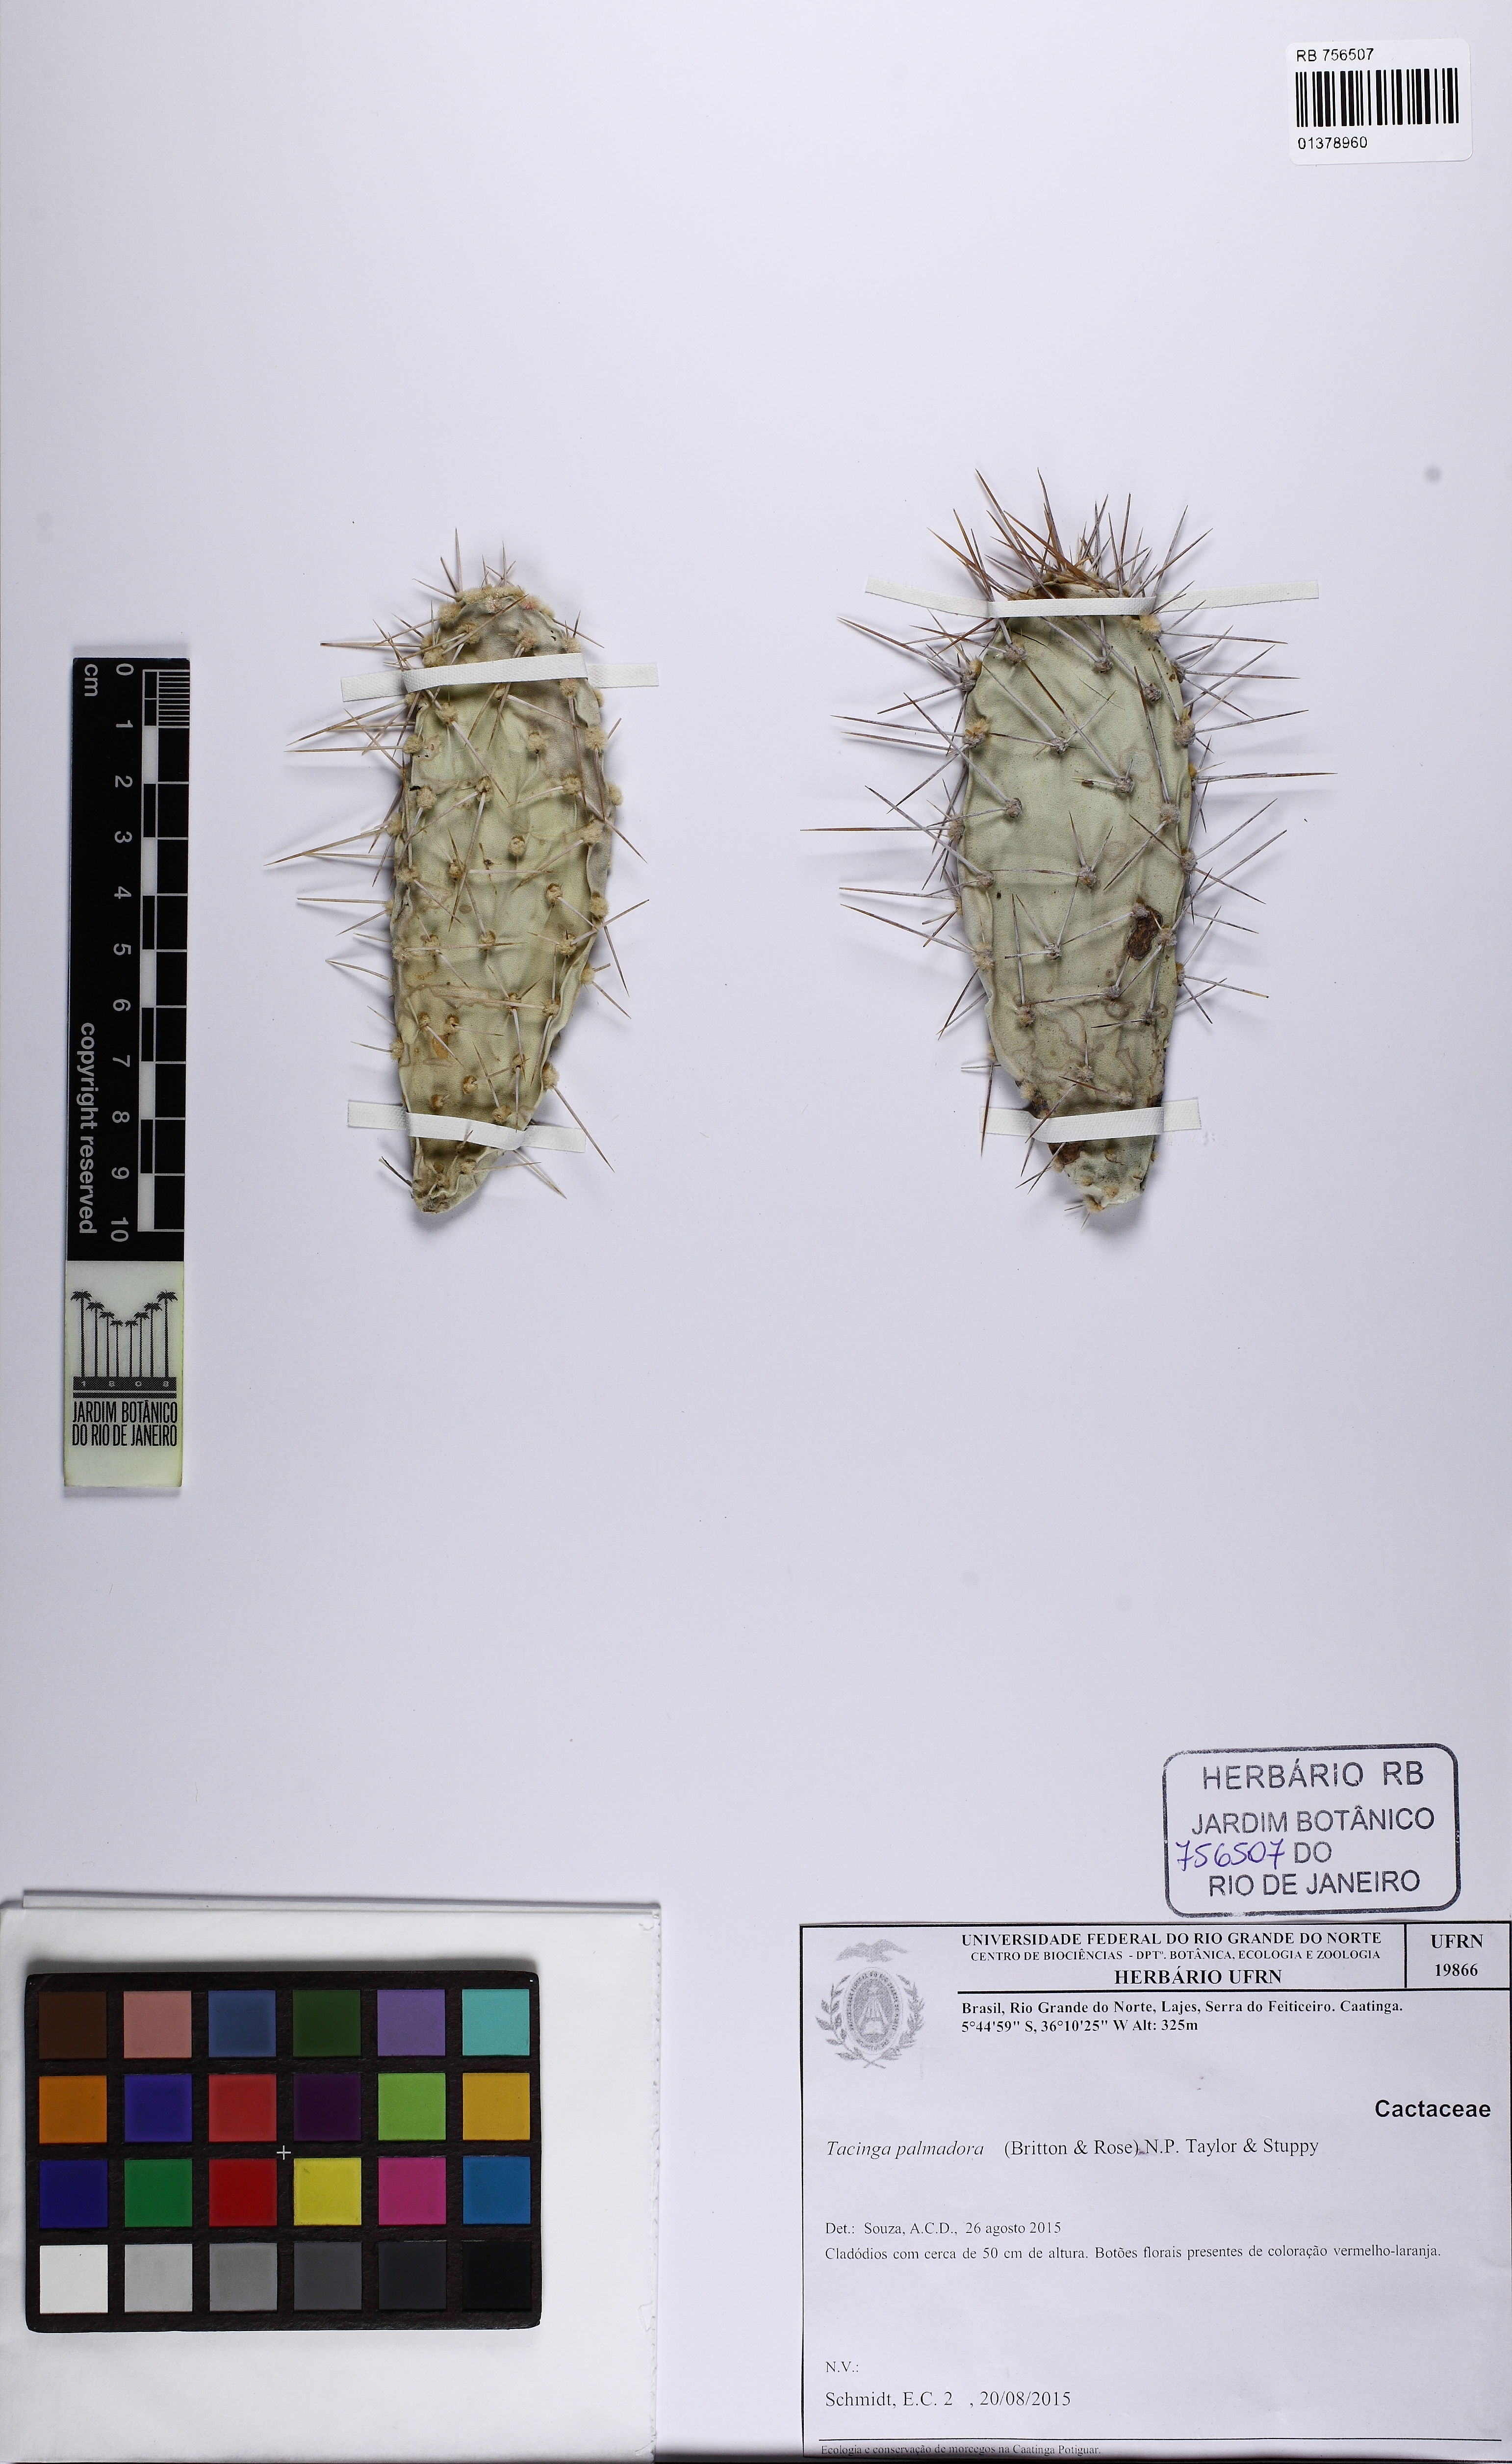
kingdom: Plantae
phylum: Tracheophyta
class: Magnoliopsida
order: Caryophyllales
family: Cactaceae
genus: Tacinga
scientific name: Tacinga palmadora
